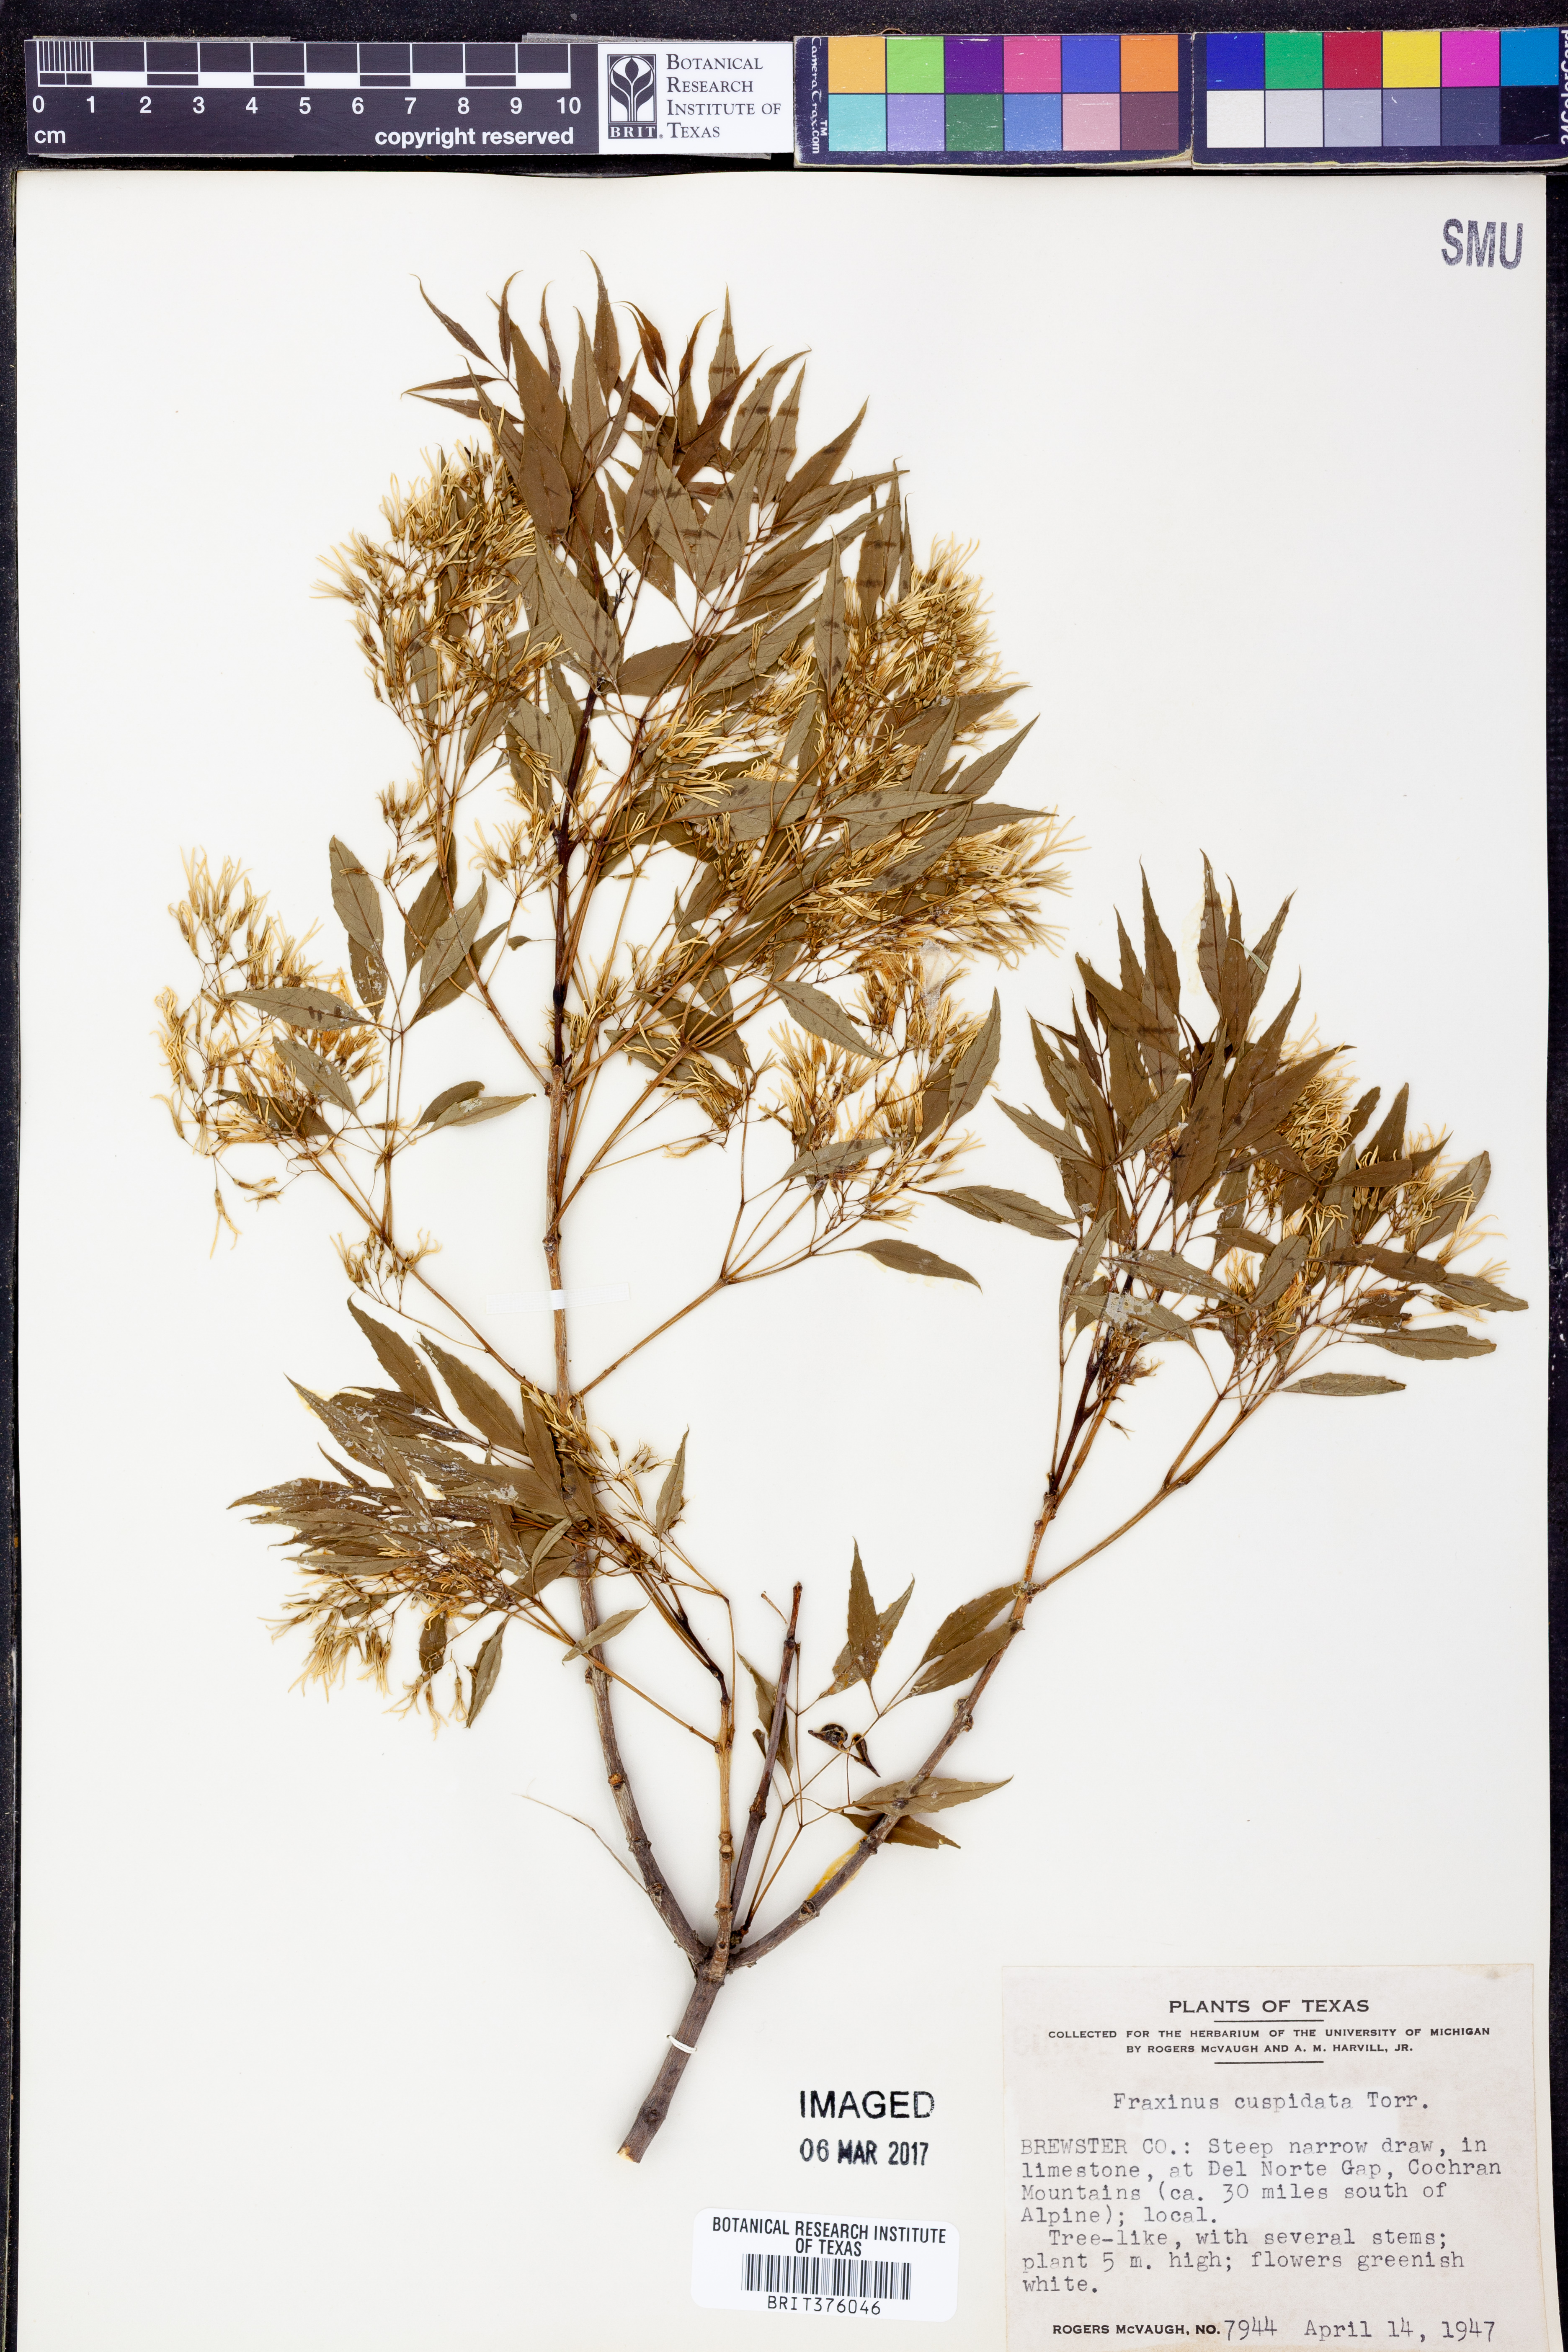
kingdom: Plantae
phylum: Tracheophyta
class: Magnoliopsida
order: Lamiales
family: Oleaceae
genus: Fraxinus
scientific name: Fraxinus cuspidata
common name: Fragrant ash
